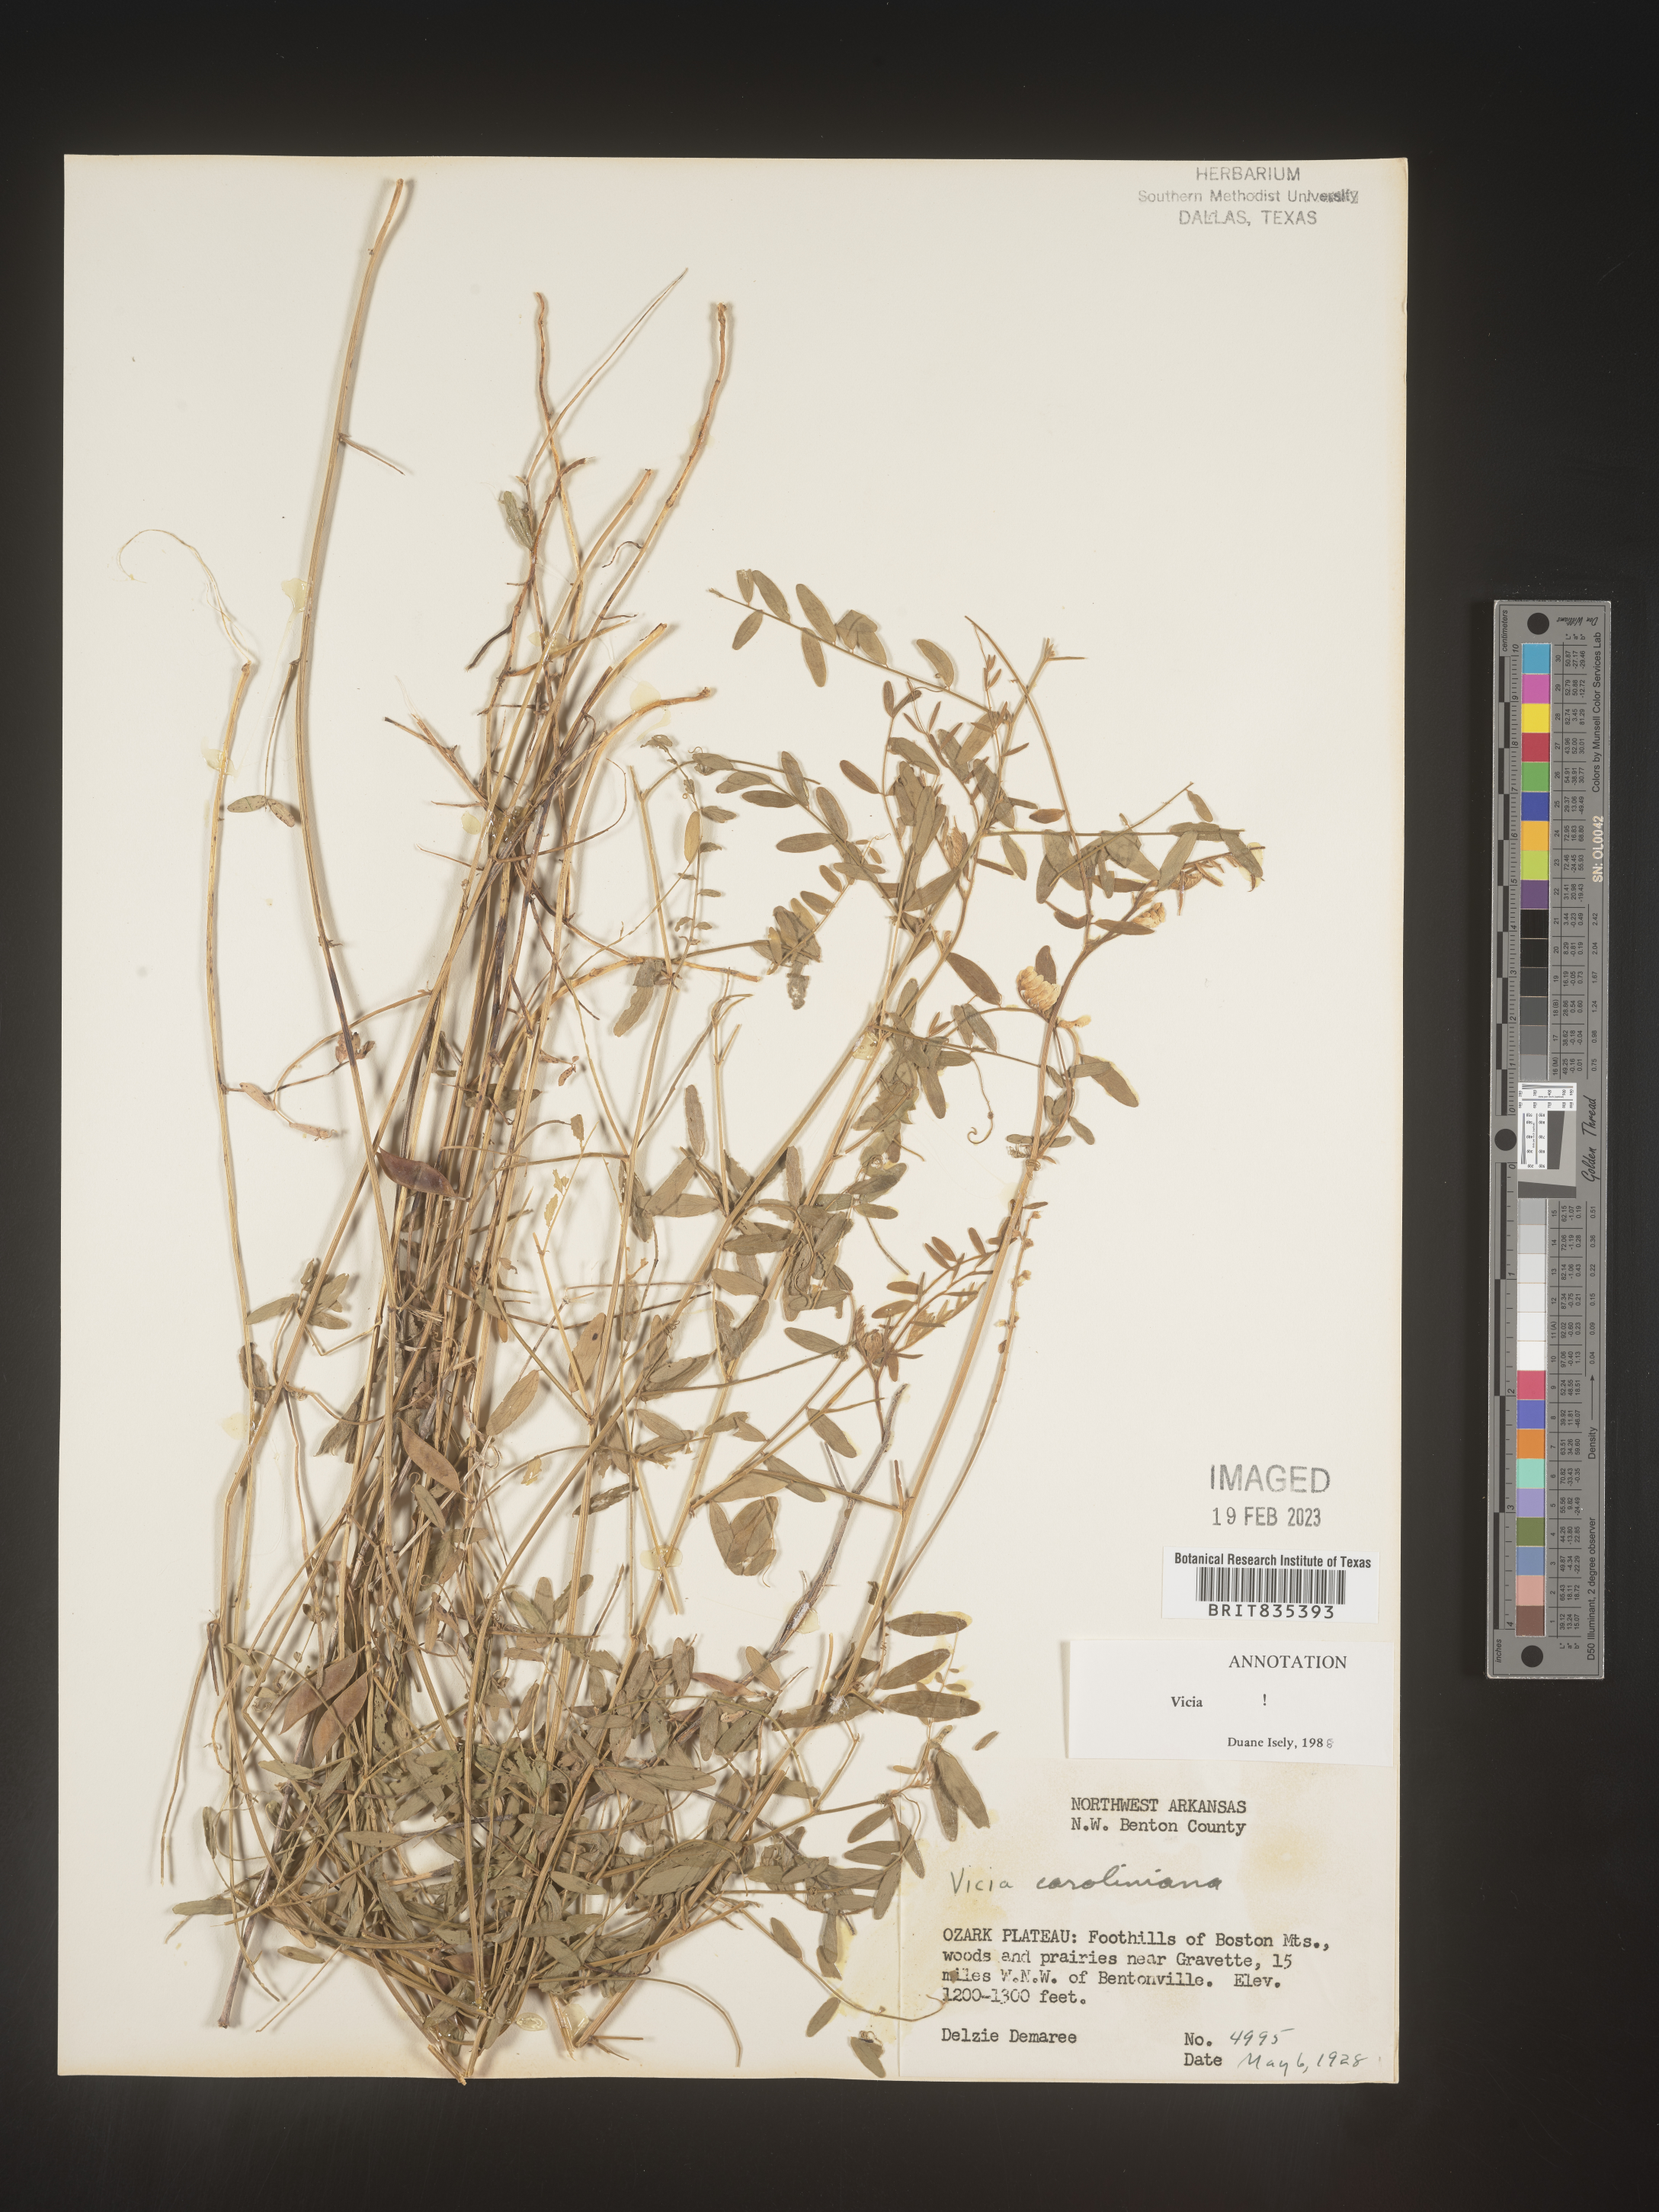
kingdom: Plantae
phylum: Tracheophyta
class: Magnoliopsida
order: Fabales
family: Fabaceae
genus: Vicia
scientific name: Vicia caroliniana
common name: Carolina vetch
